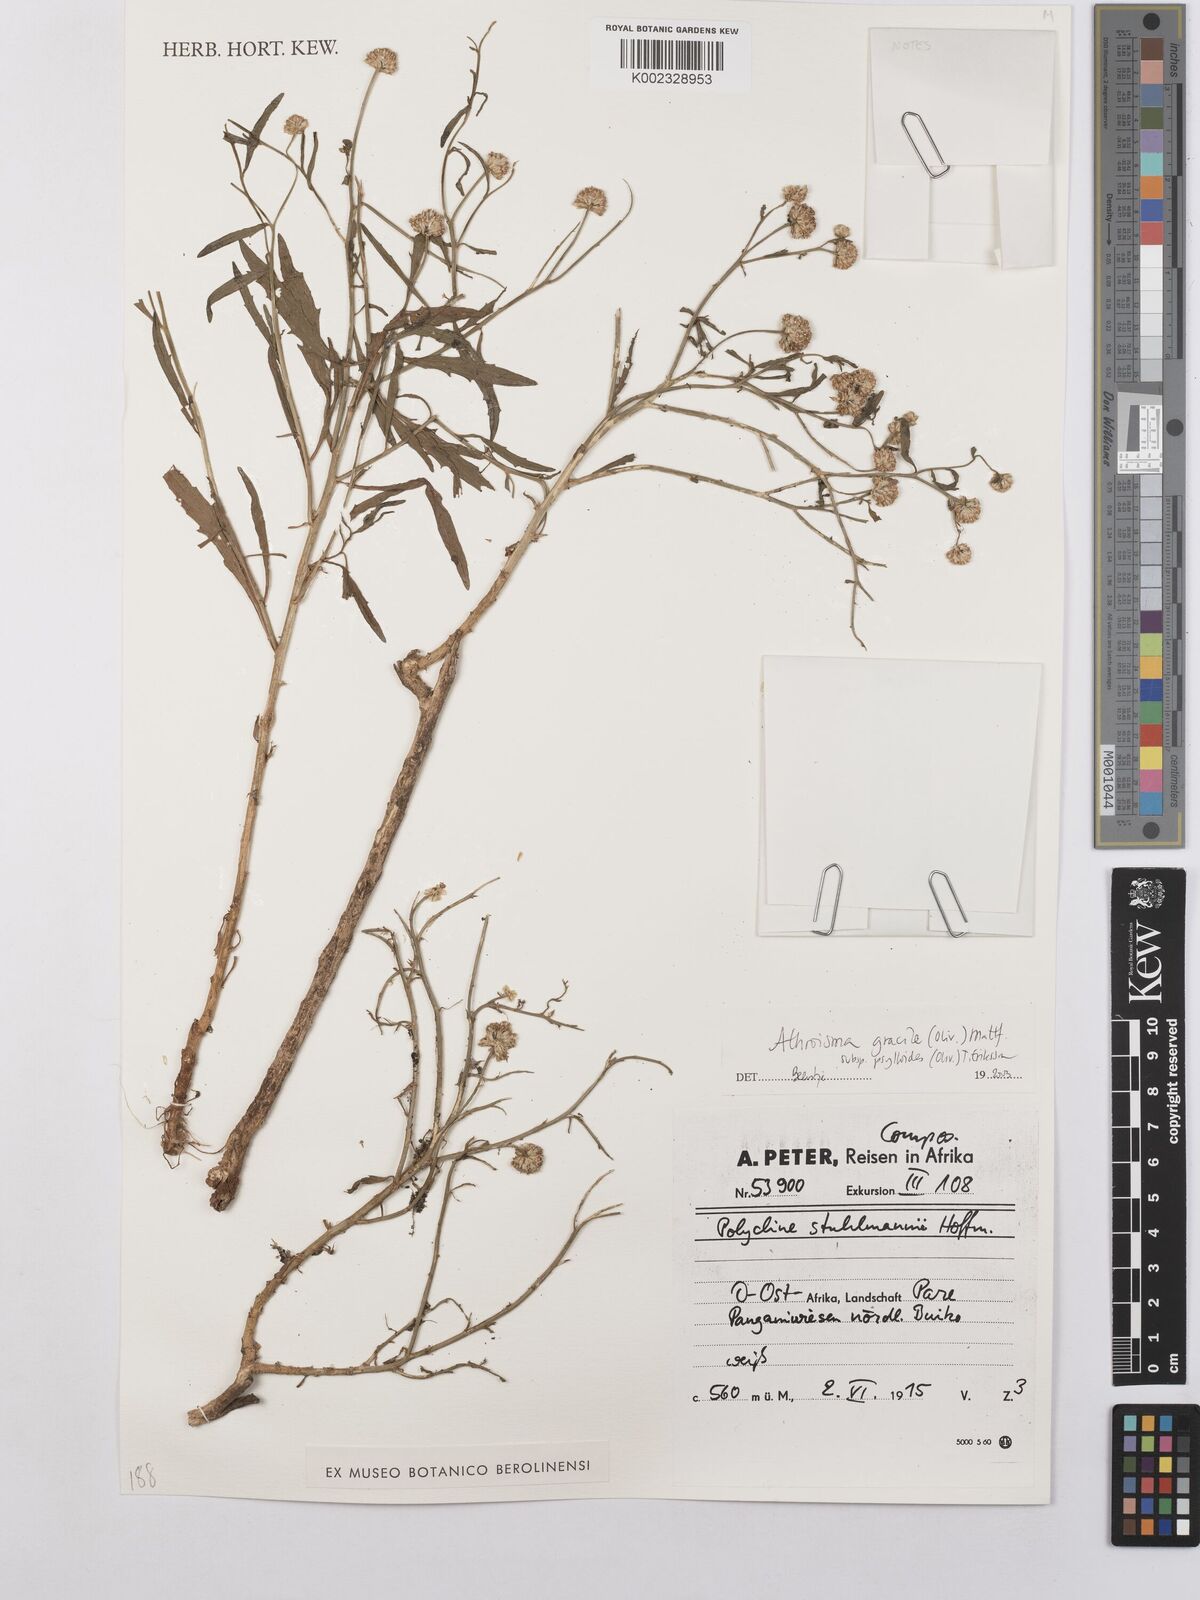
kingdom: Plantae
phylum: Tracheophyta
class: Magnoliopsida
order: Asterales
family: Asteraceae
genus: Athroisma
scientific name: Athroisma gracile
